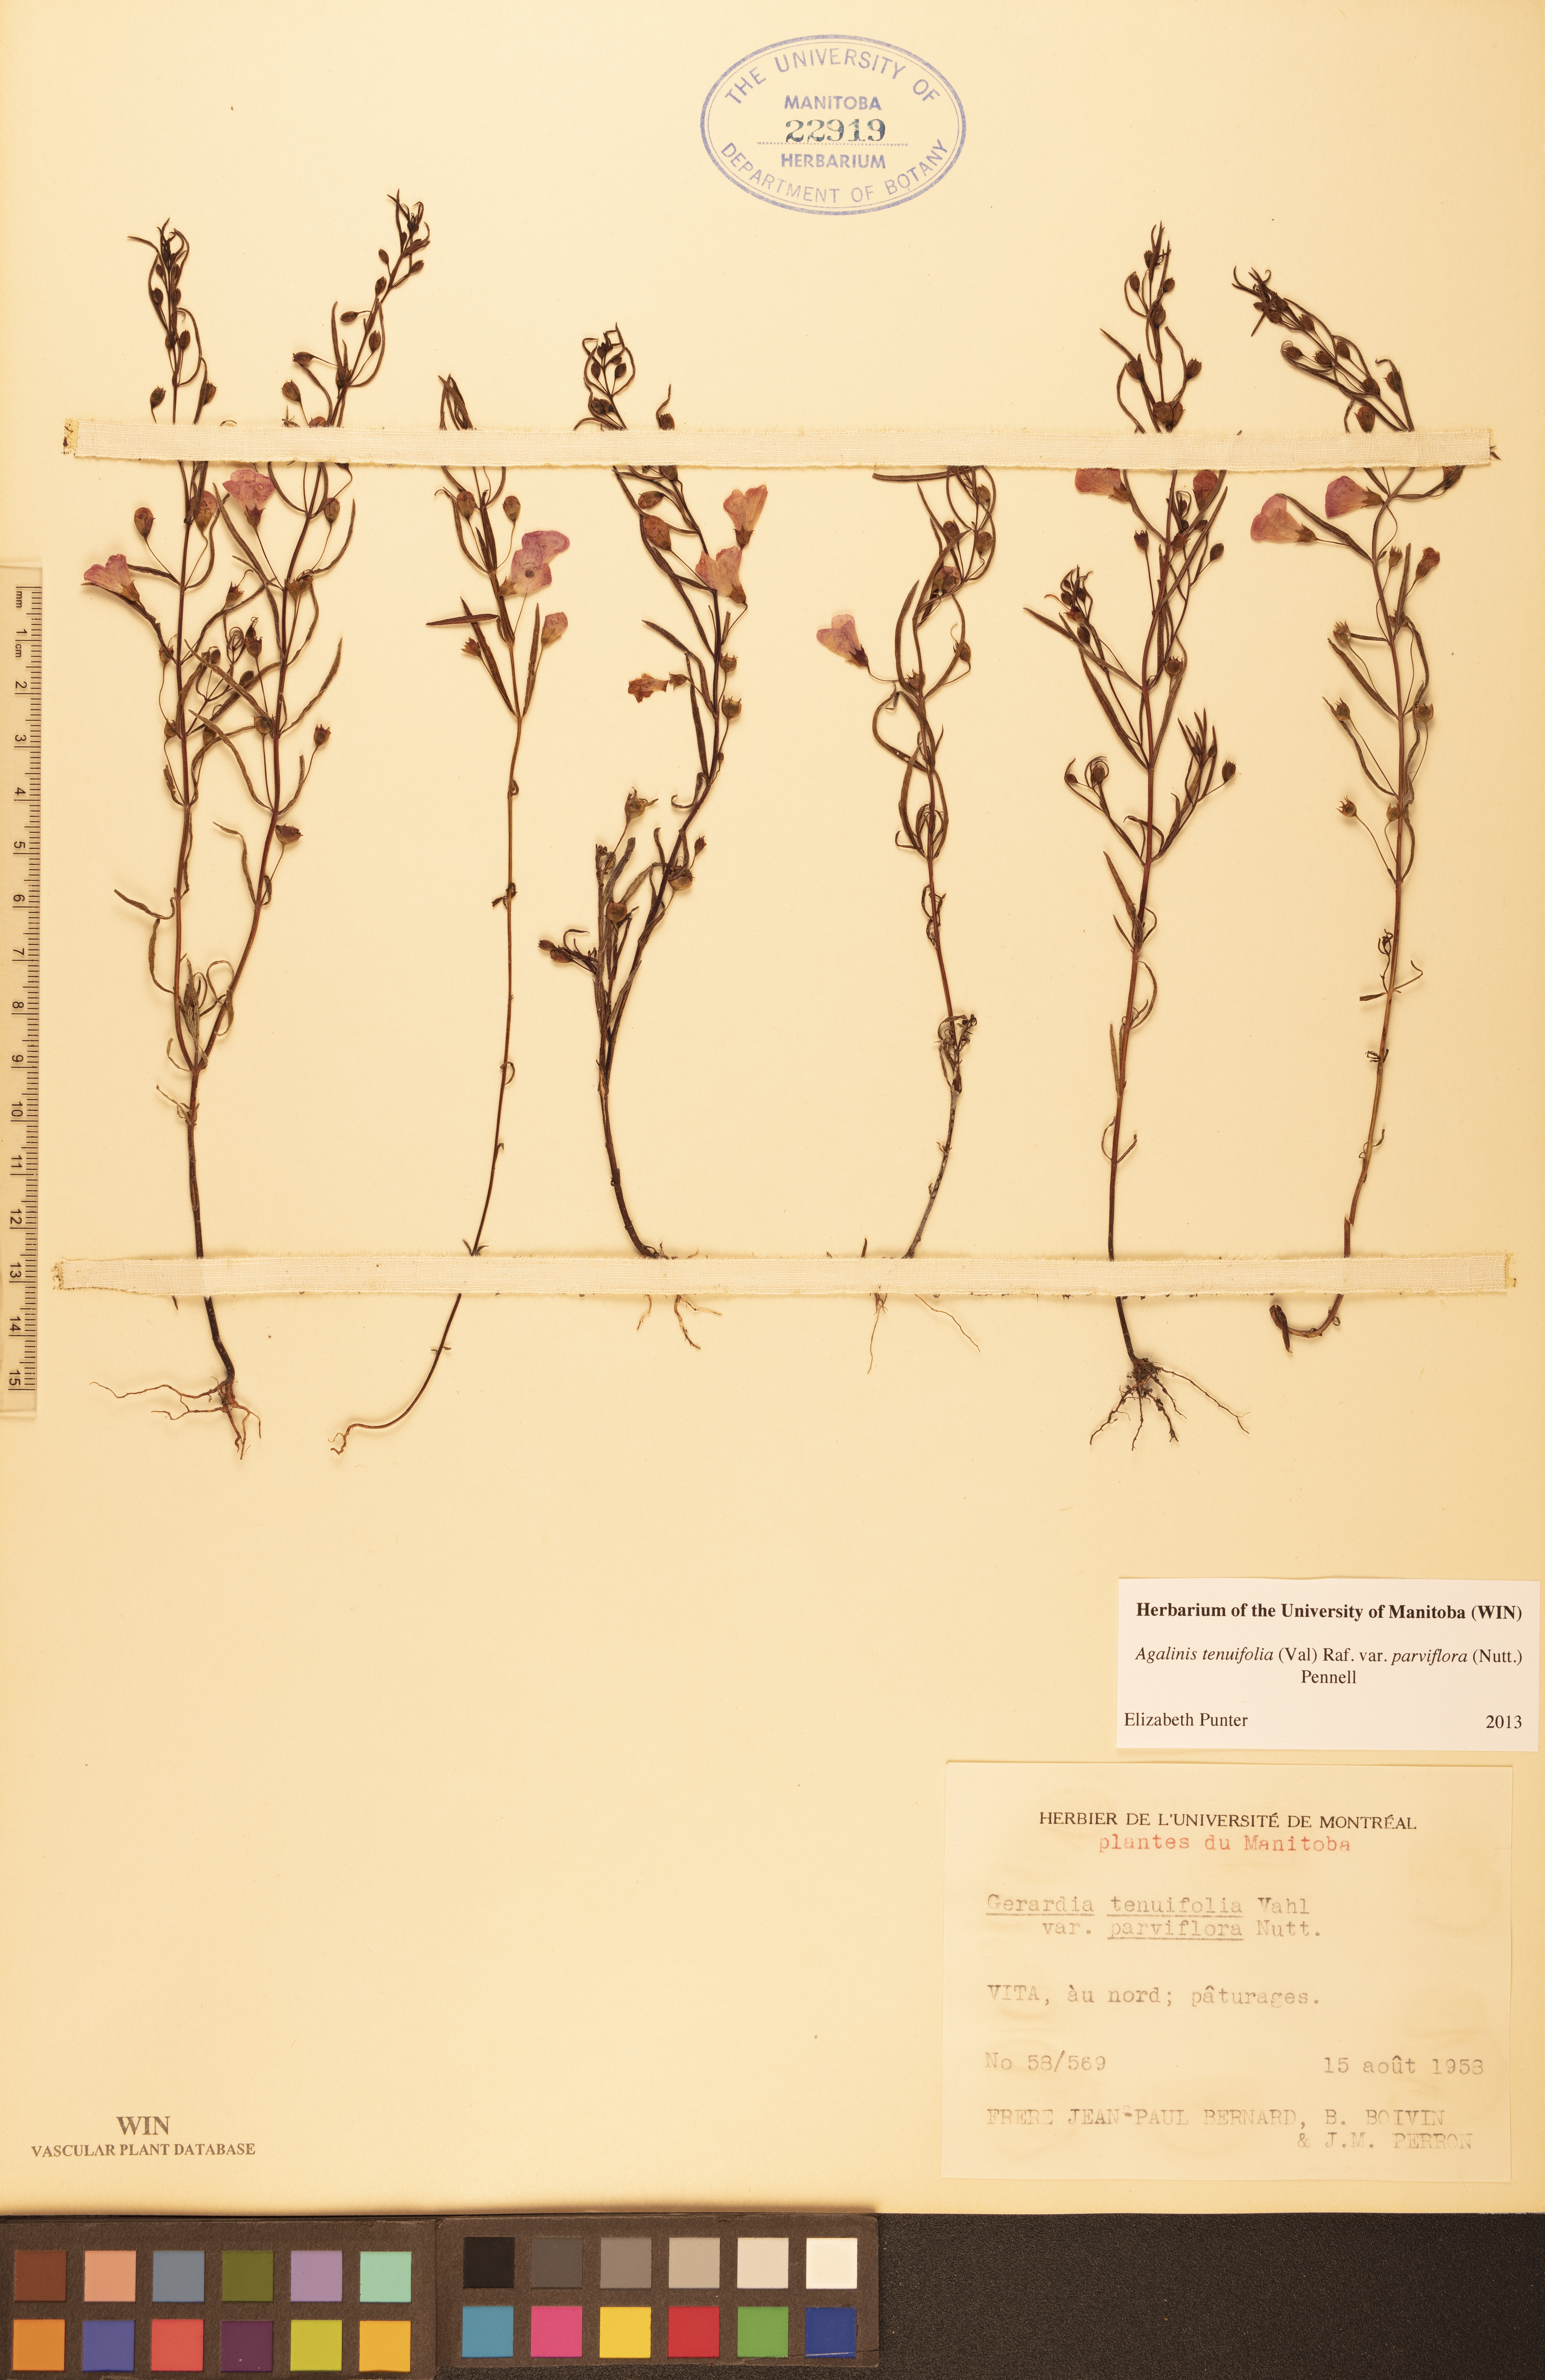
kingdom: Plantae
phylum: Tracheophyta
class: Magnoliopsida
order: Lamiales
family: Orobanchaceae
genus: Agalinis
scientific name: Agalinis tenuifolia
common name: Slender agalinis
